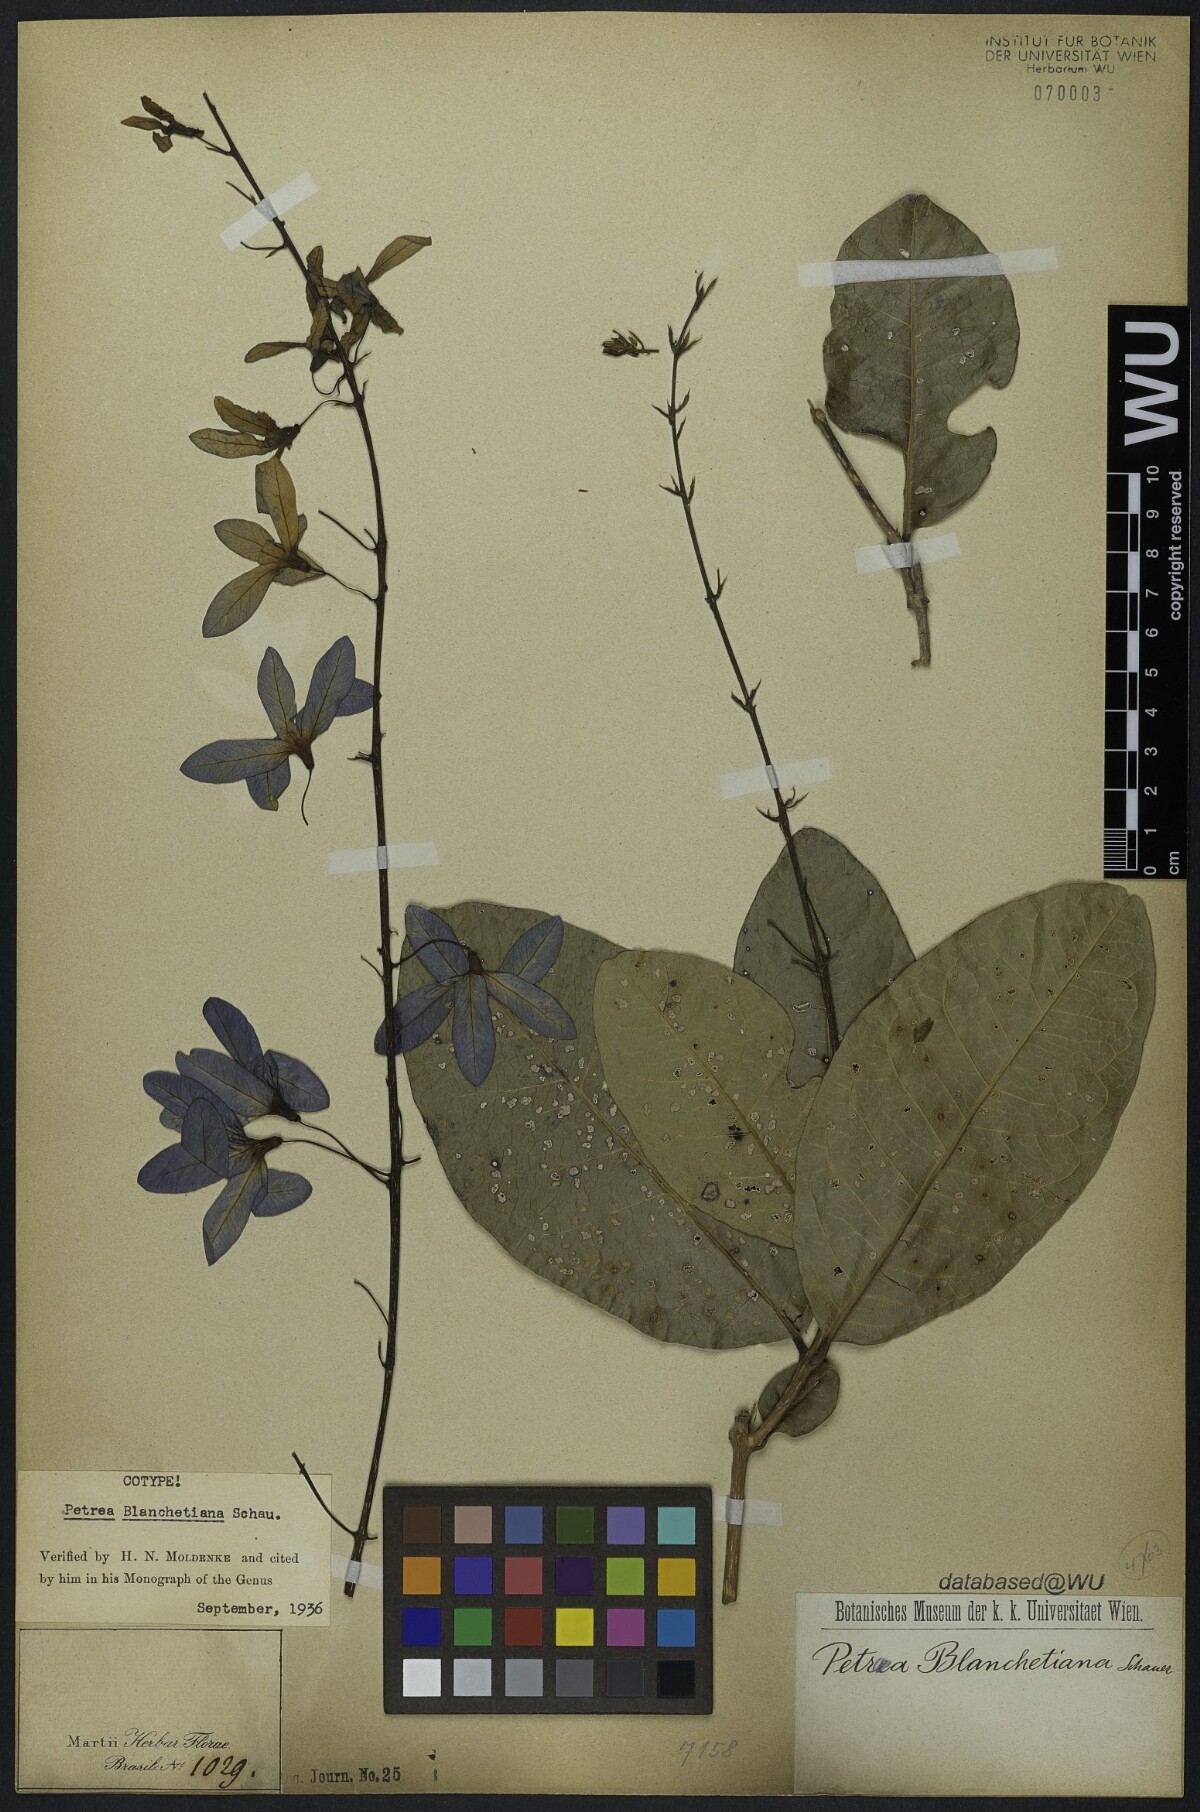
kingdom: Plantae
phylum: Tracheophyta
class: Magnoliopsida
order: Lamiales
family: Verbenaceae
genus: Petrea
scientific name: Petrea blanchetiana
